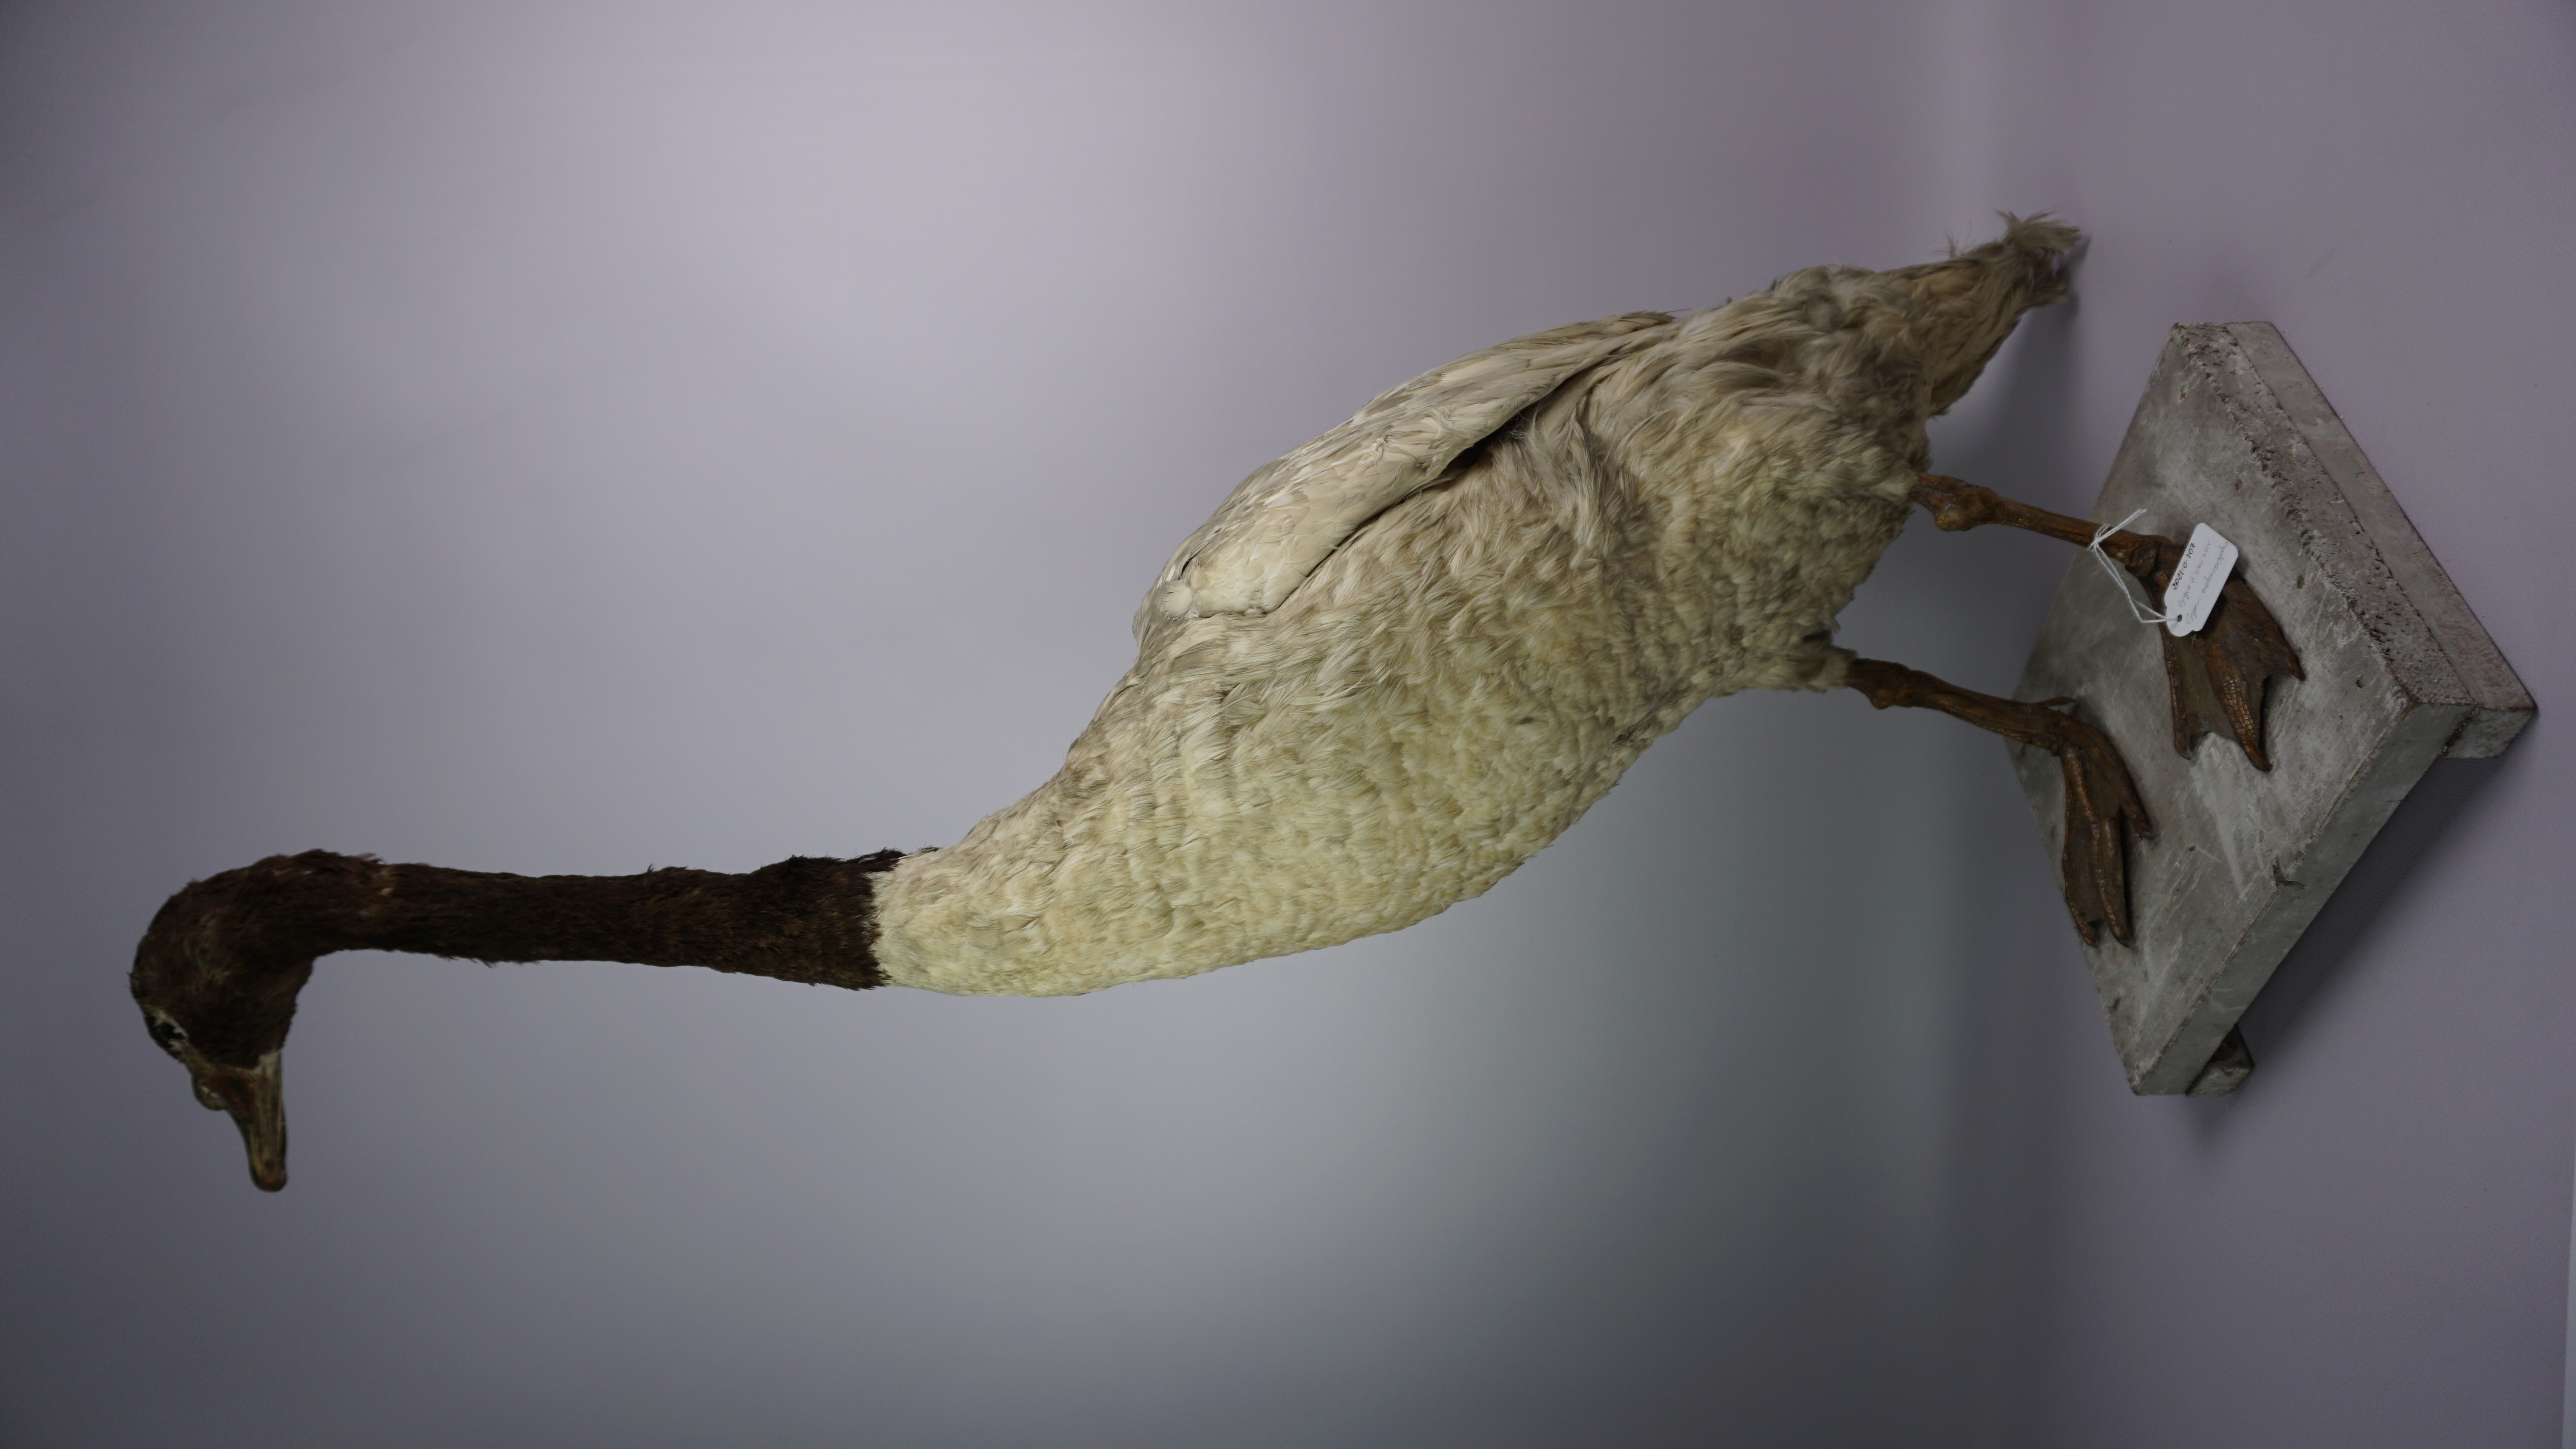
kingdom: Animalia
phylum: Chordata
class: Aves
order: Anseriformes
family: Anatidae
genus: Cygnus
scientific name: Cygnus melancoryphus
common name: Black-necked swan
